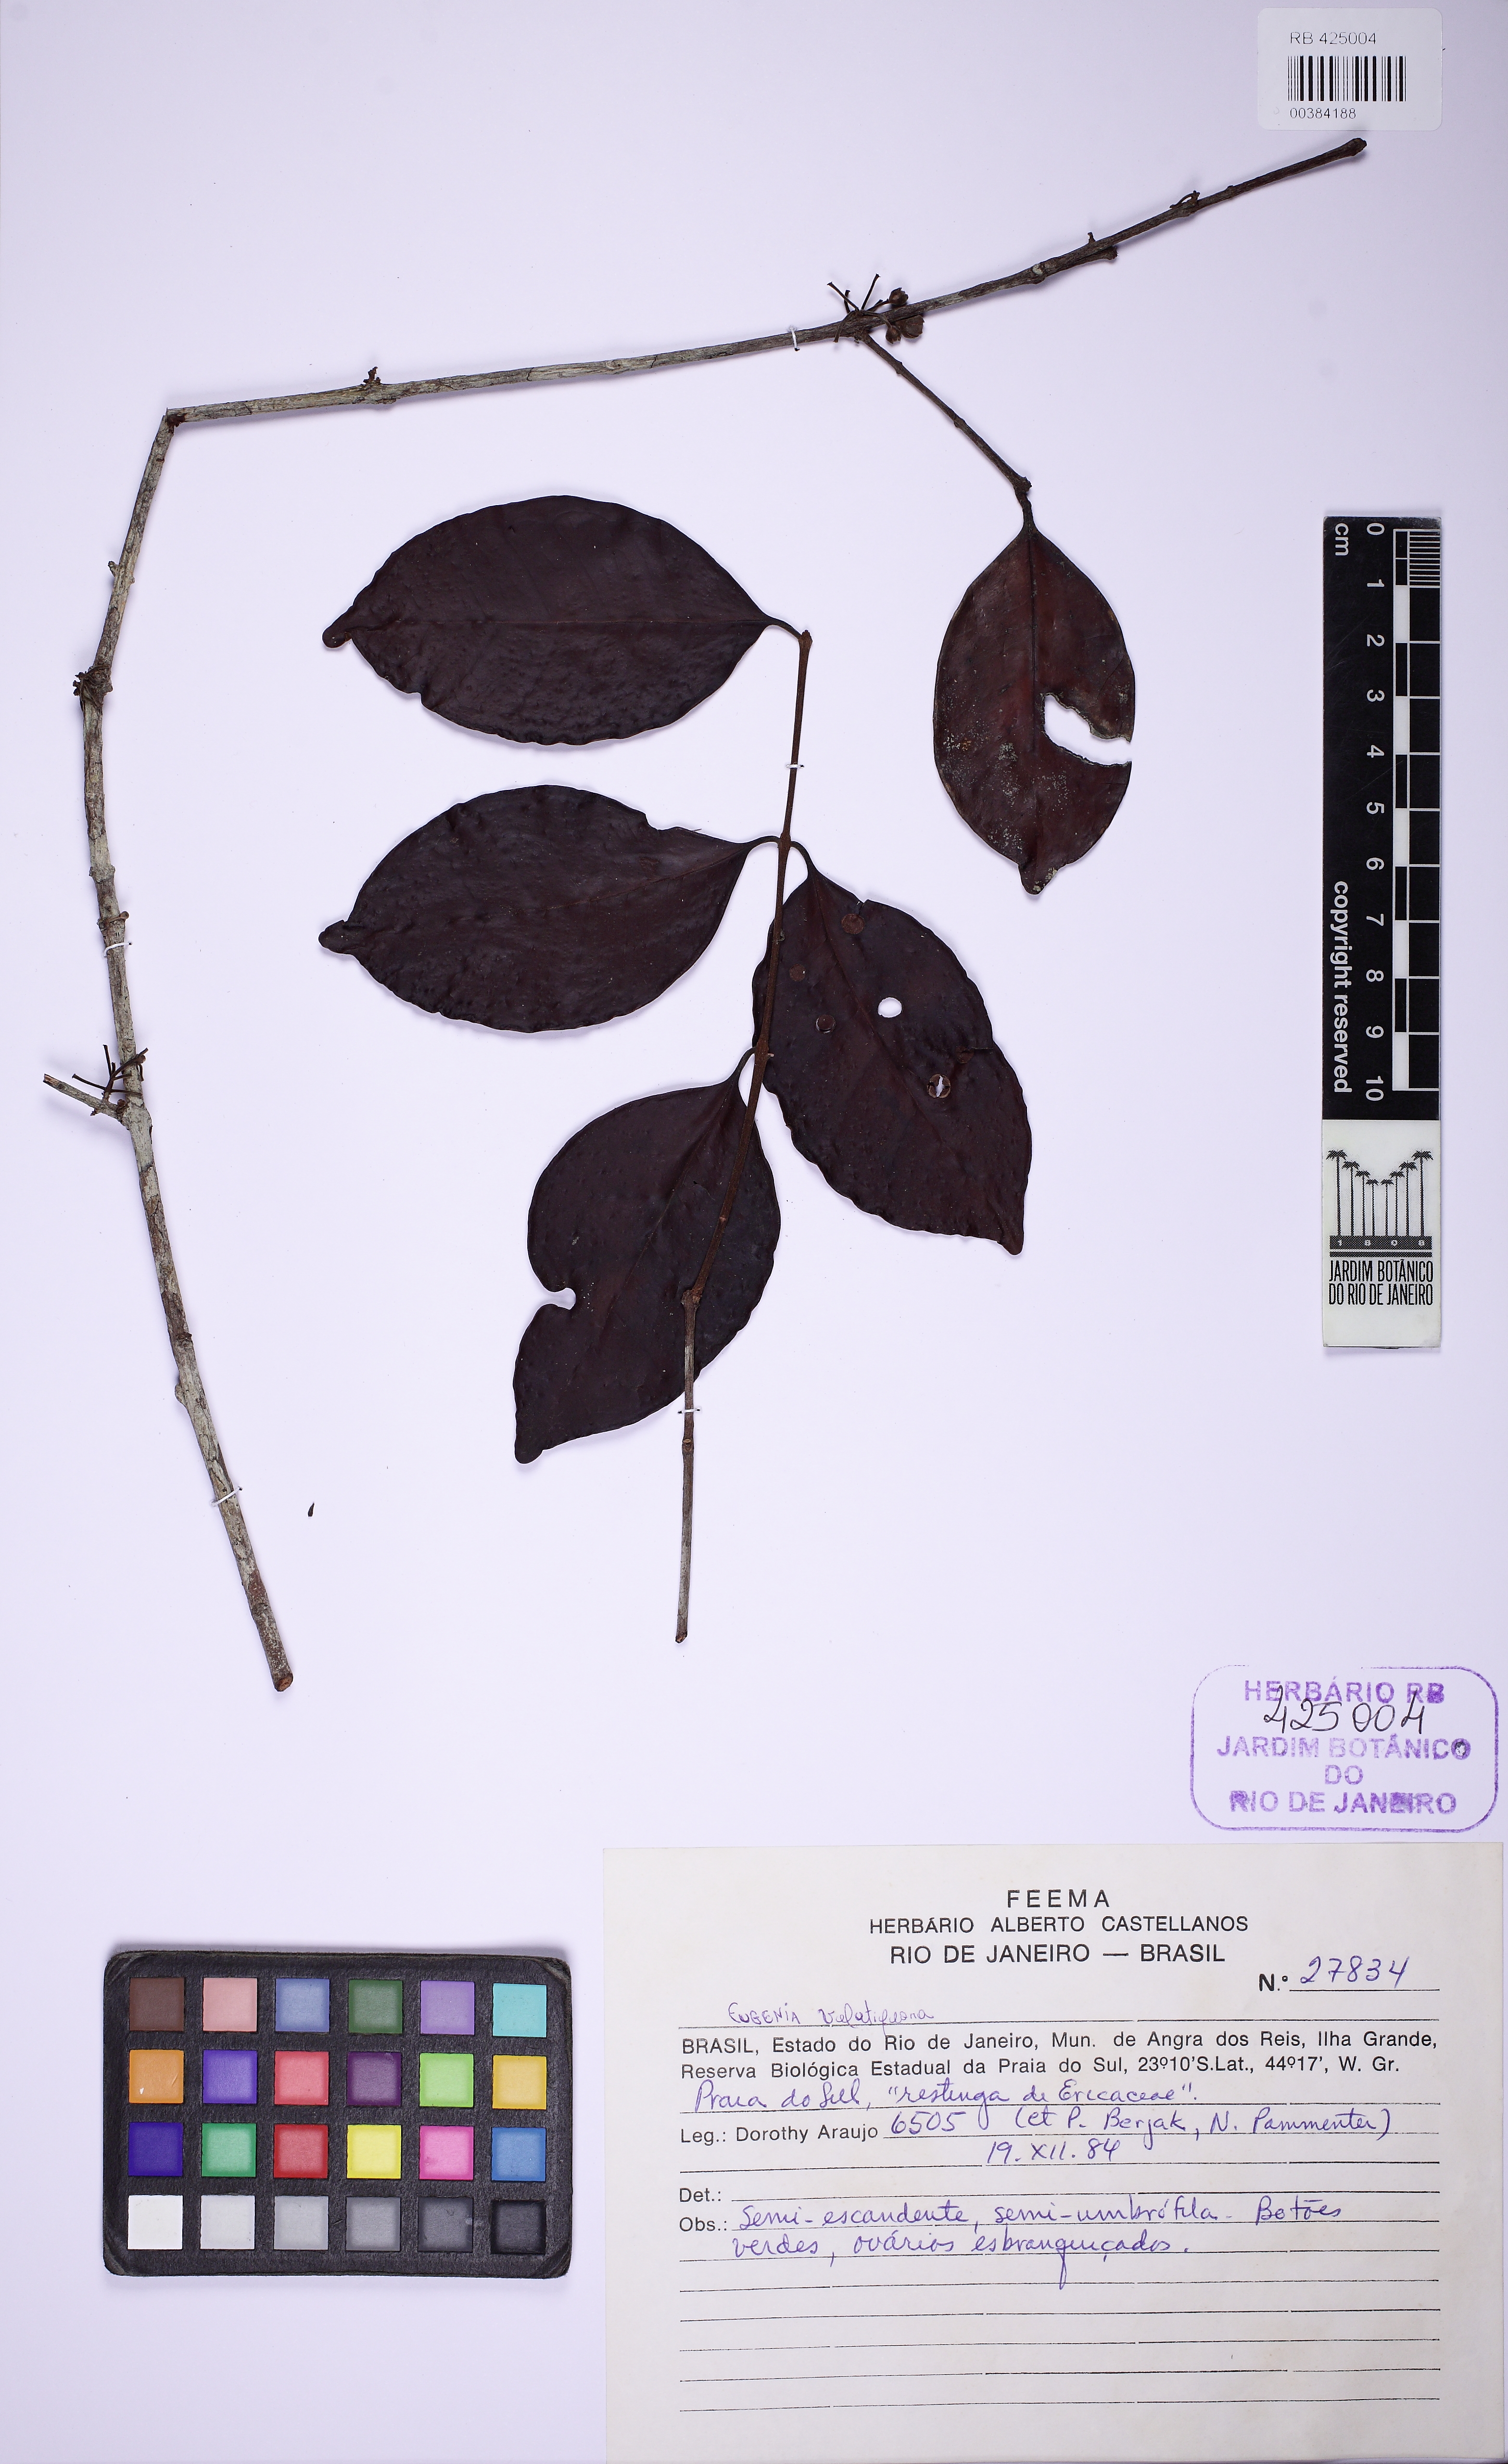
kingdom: Plantae
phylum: Tracheophyta
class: Magnoliopsida
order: Myrtales
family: Myrtaceae
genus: Eugenia
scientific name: Eugenia bahiensis
